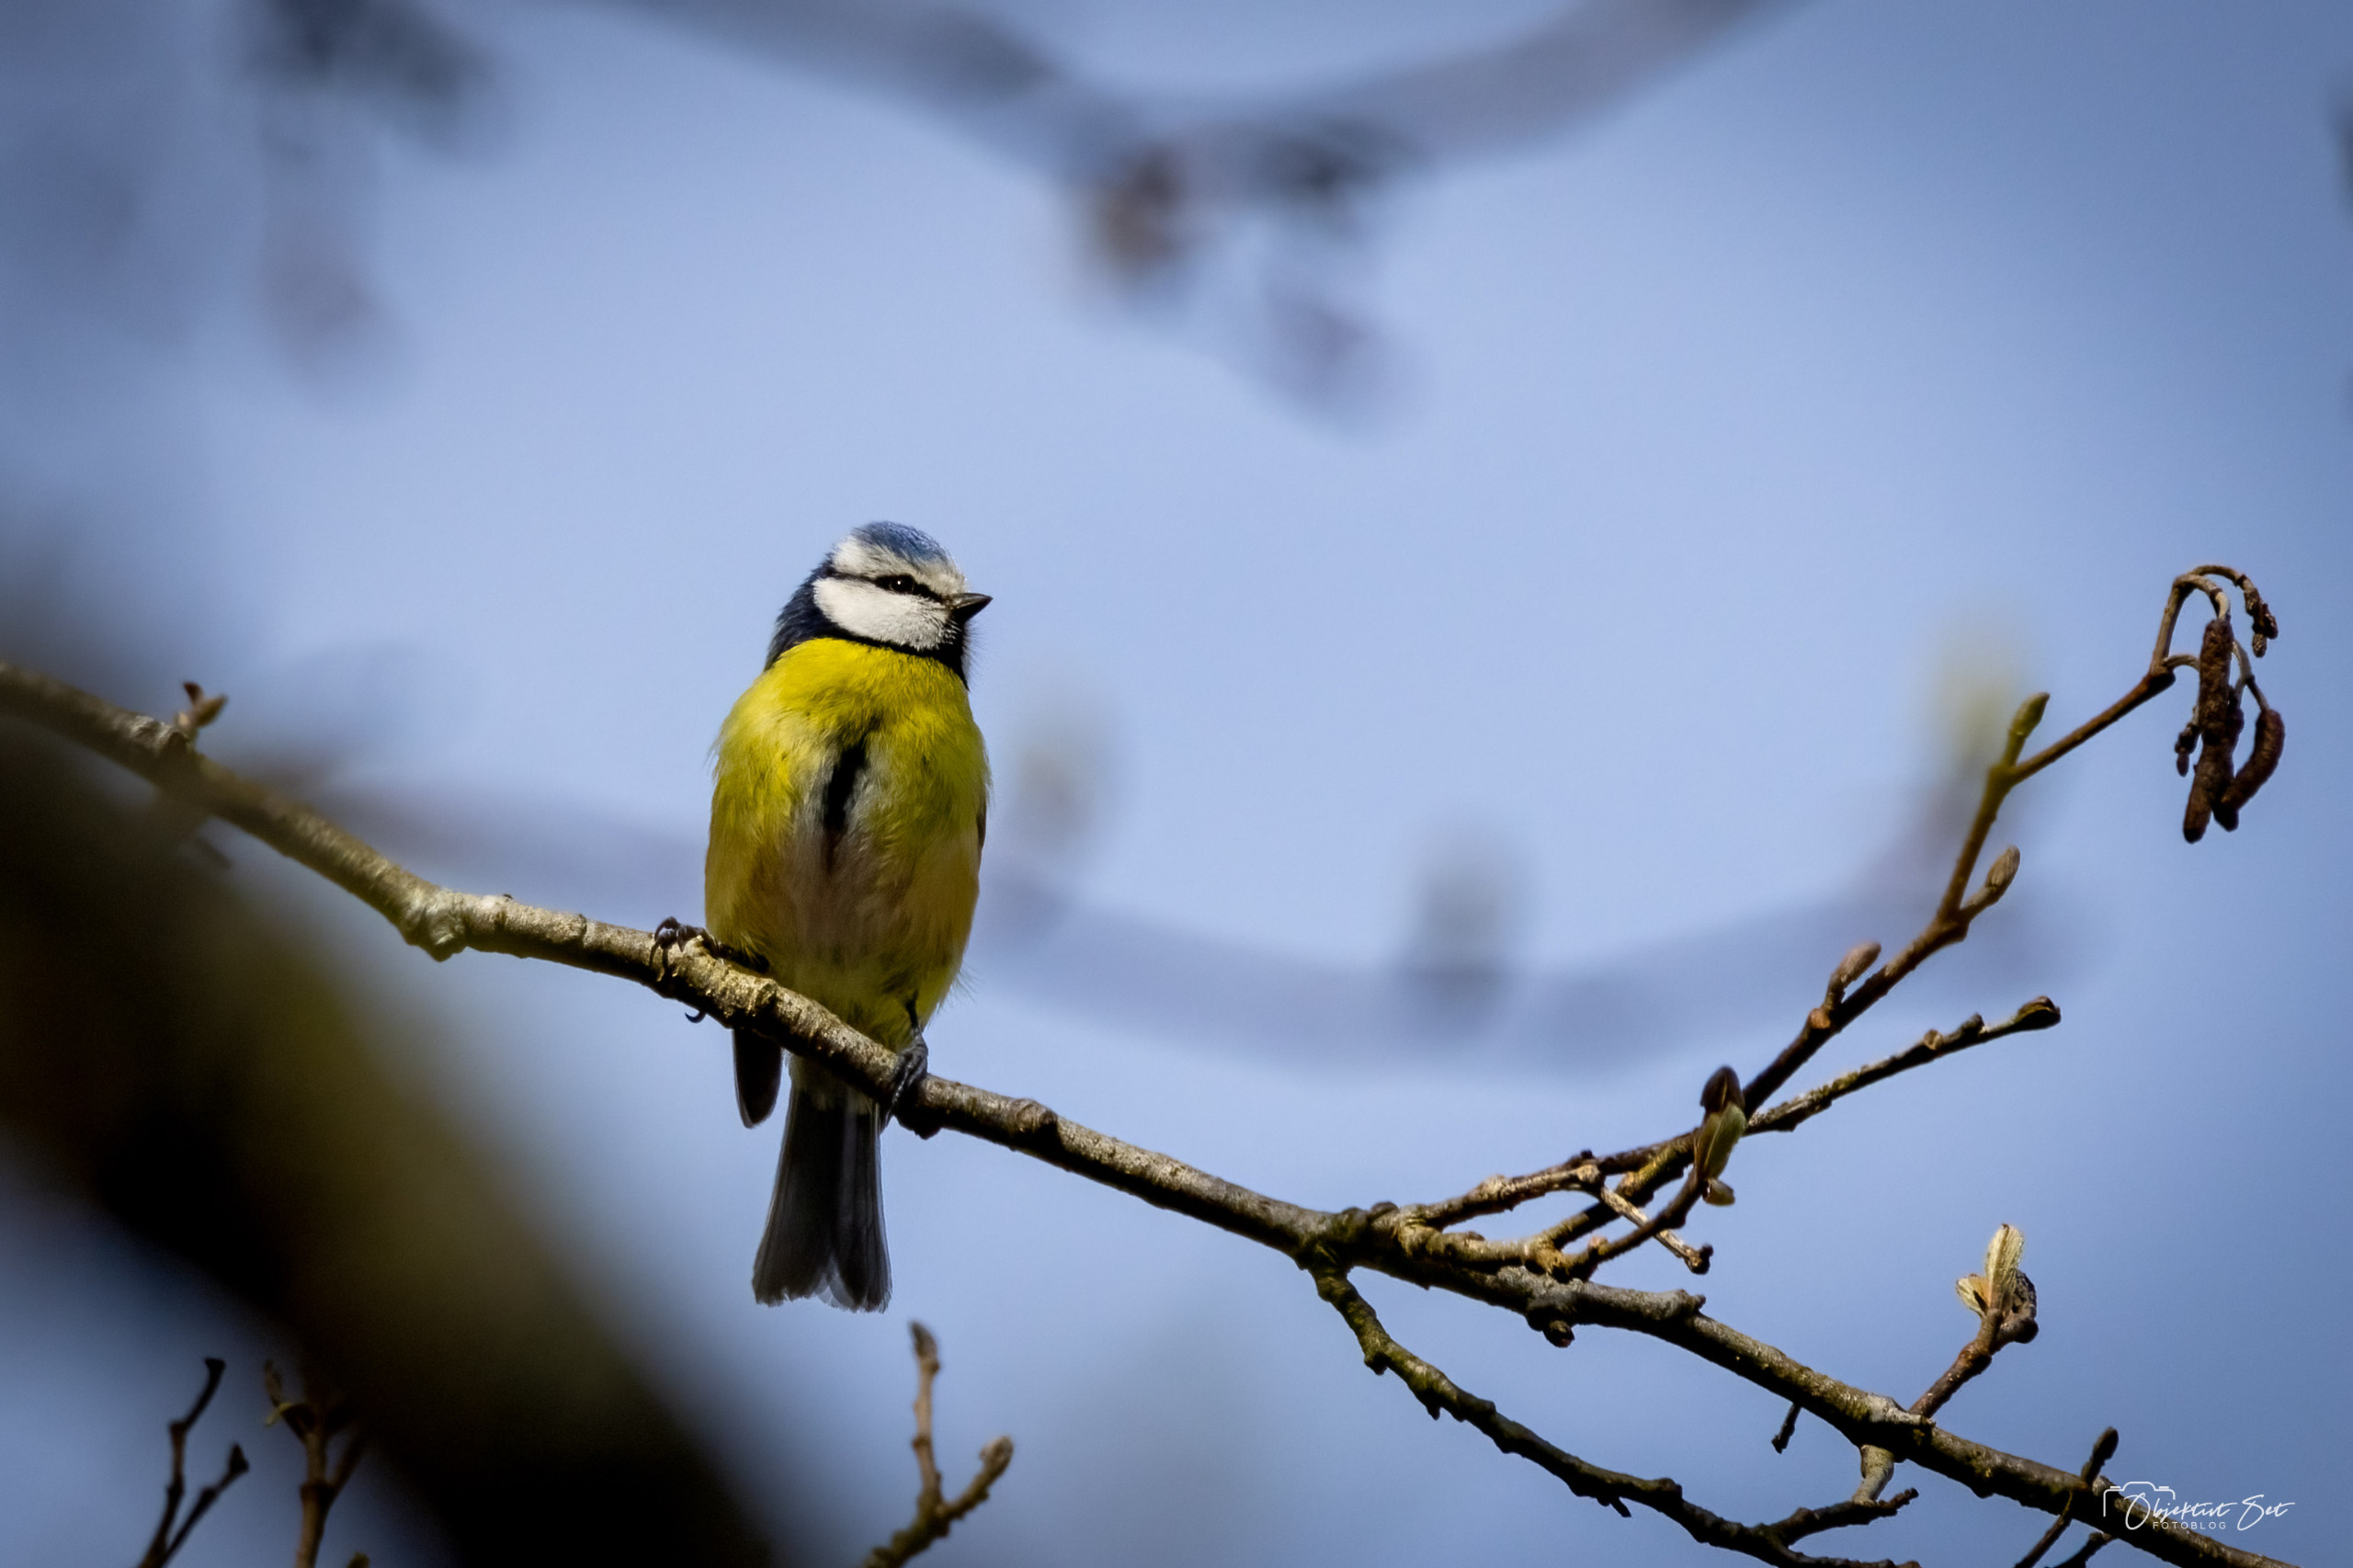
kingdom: Animalia
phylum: Chordata
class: Aves
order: Passeriformes
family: Paridae
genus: Cyanistes
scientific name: Cyanistes caeruleus
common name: Blåmejse
